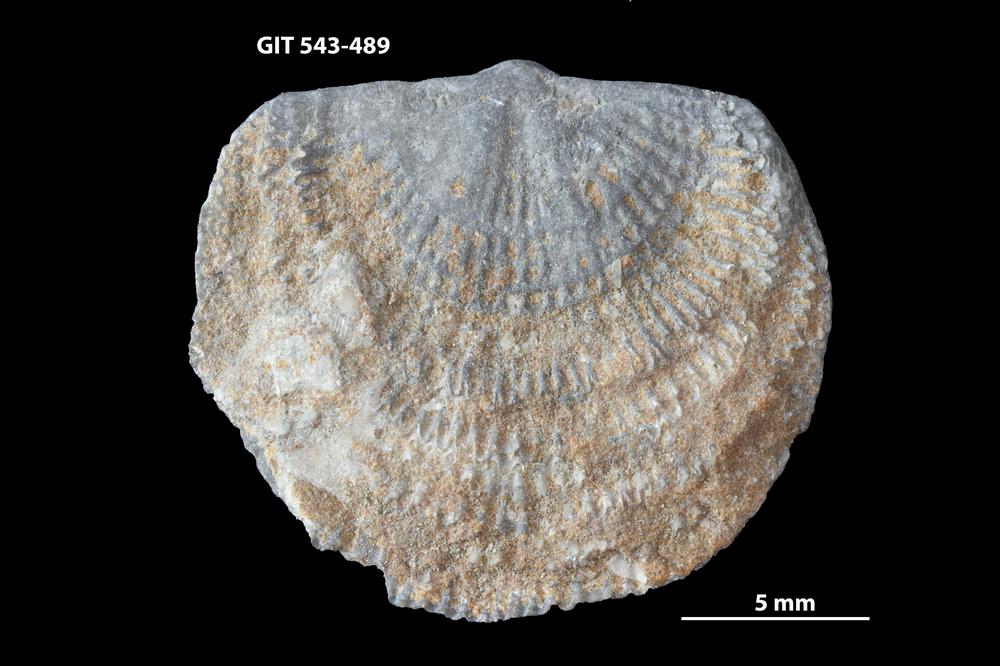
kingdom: Animalia
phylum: Brachiopoda
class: Rhynchonellata
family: Clitambonitidae
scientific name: Clitambonitidae
